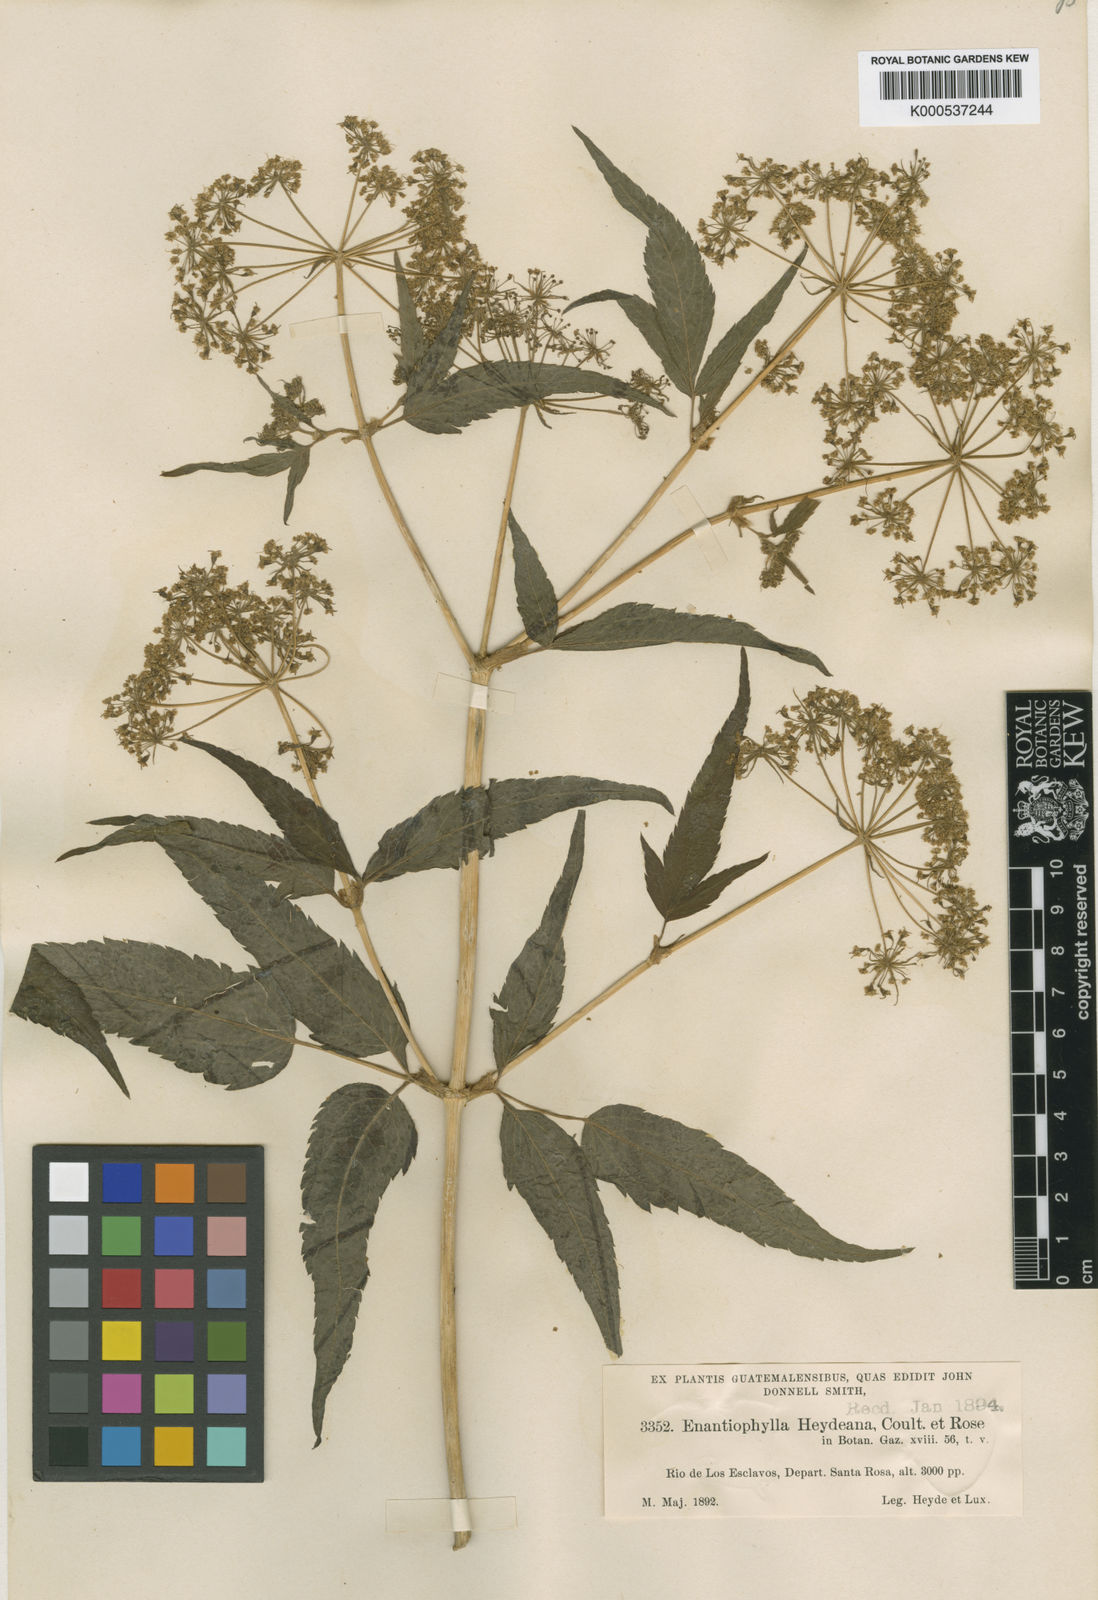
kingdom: Plantae
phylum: Tracheophyta
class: Magnoliopsida
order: Apiales
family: Apiaceae
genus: Enantiophylla
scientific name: Enantiophylla heydeana
